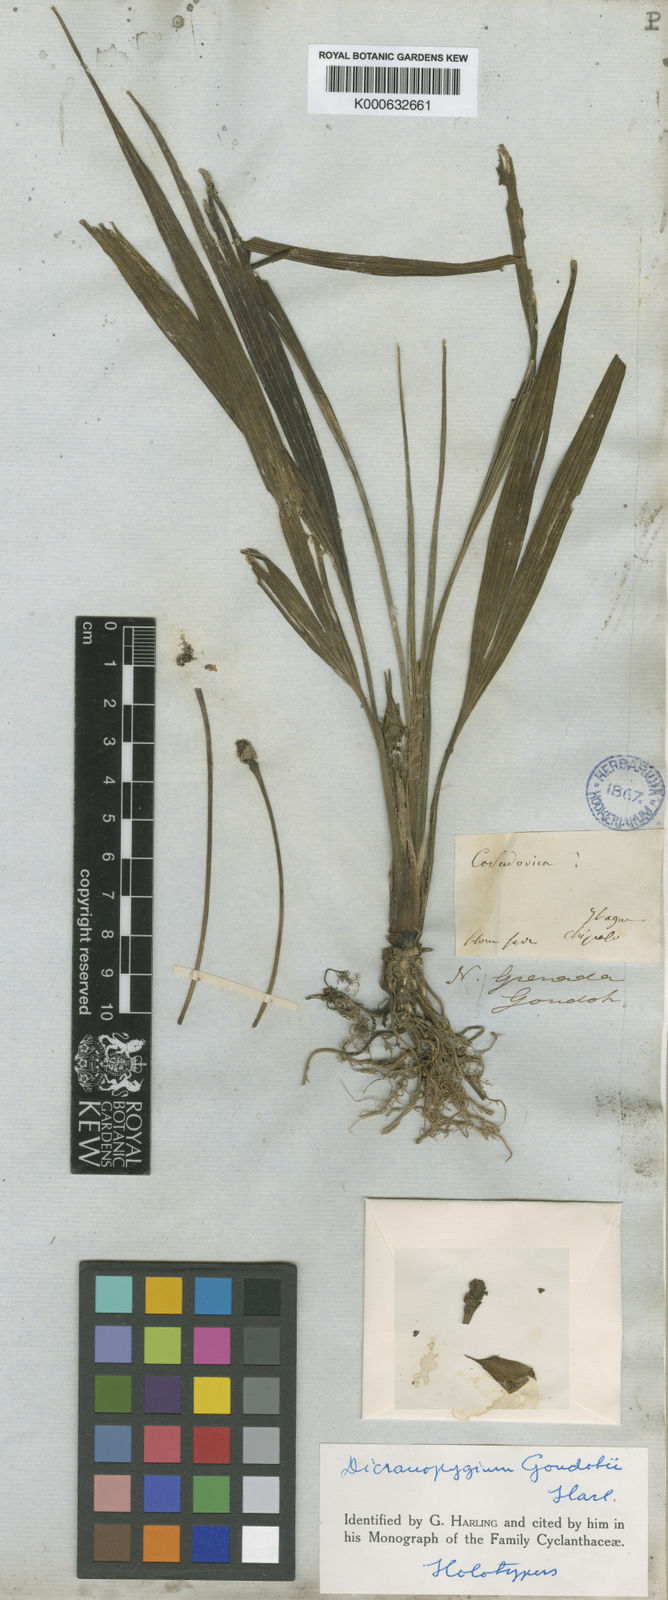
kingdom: Plantae
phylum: Tracheophyta
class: Liliopsida
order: Pandanales
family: Cyclanthaceae
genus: Dicranopygium
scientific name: Dicranopygium goudotii
